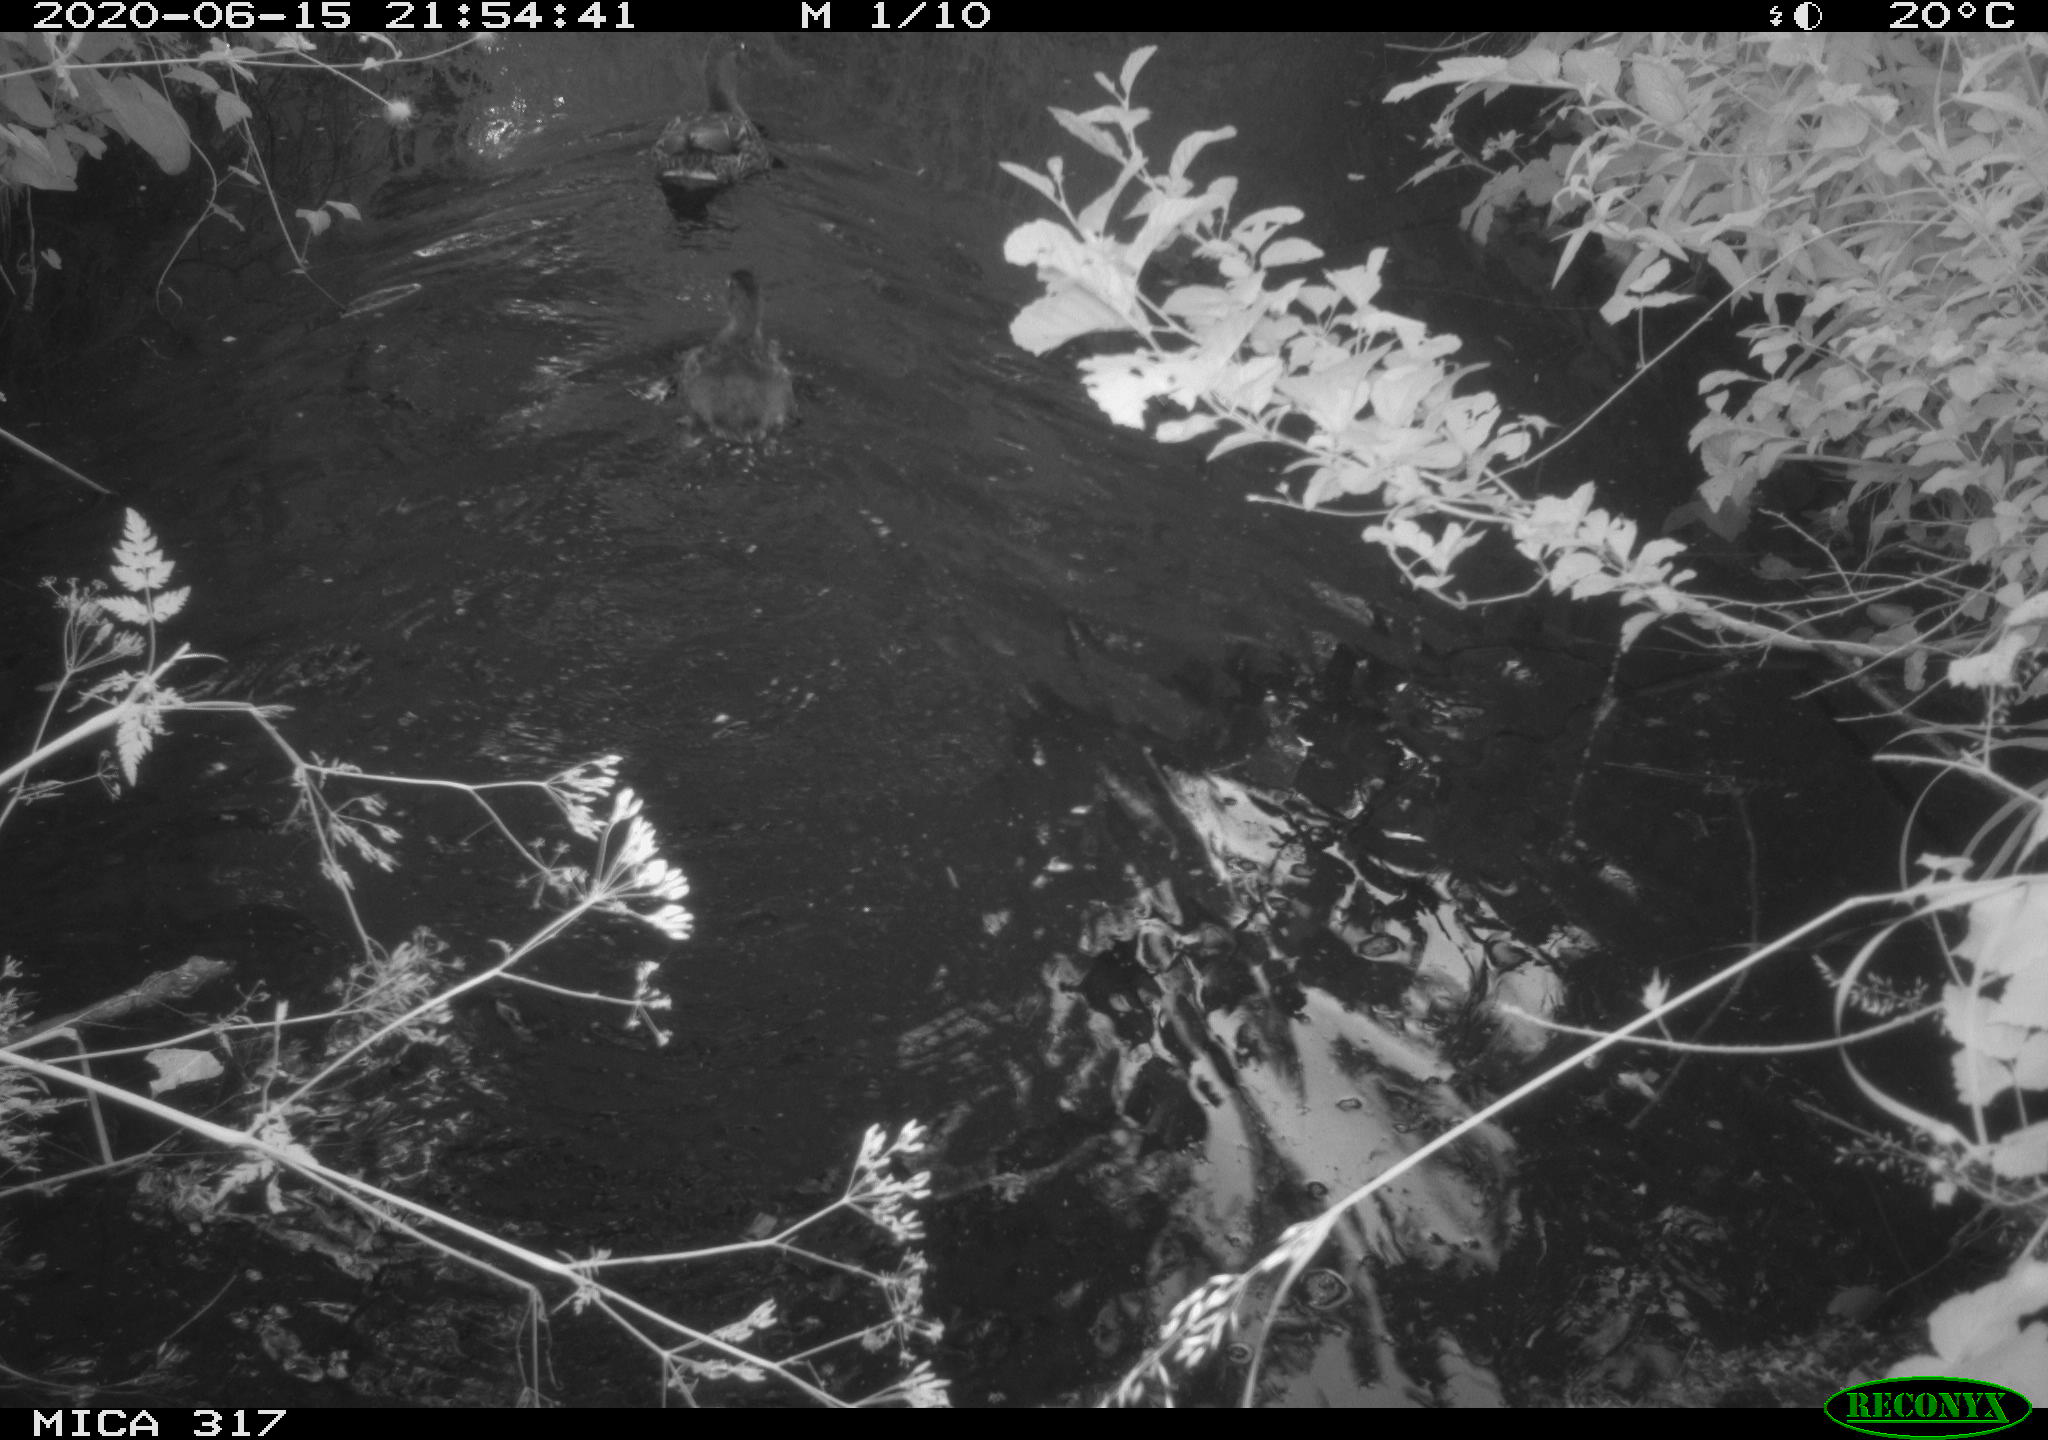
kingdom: Animalia
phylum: Chordata
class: Aves
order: Anseriformes
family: Anatidae
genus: Anas
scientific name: Anas platyrhynchos
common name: Mallard
